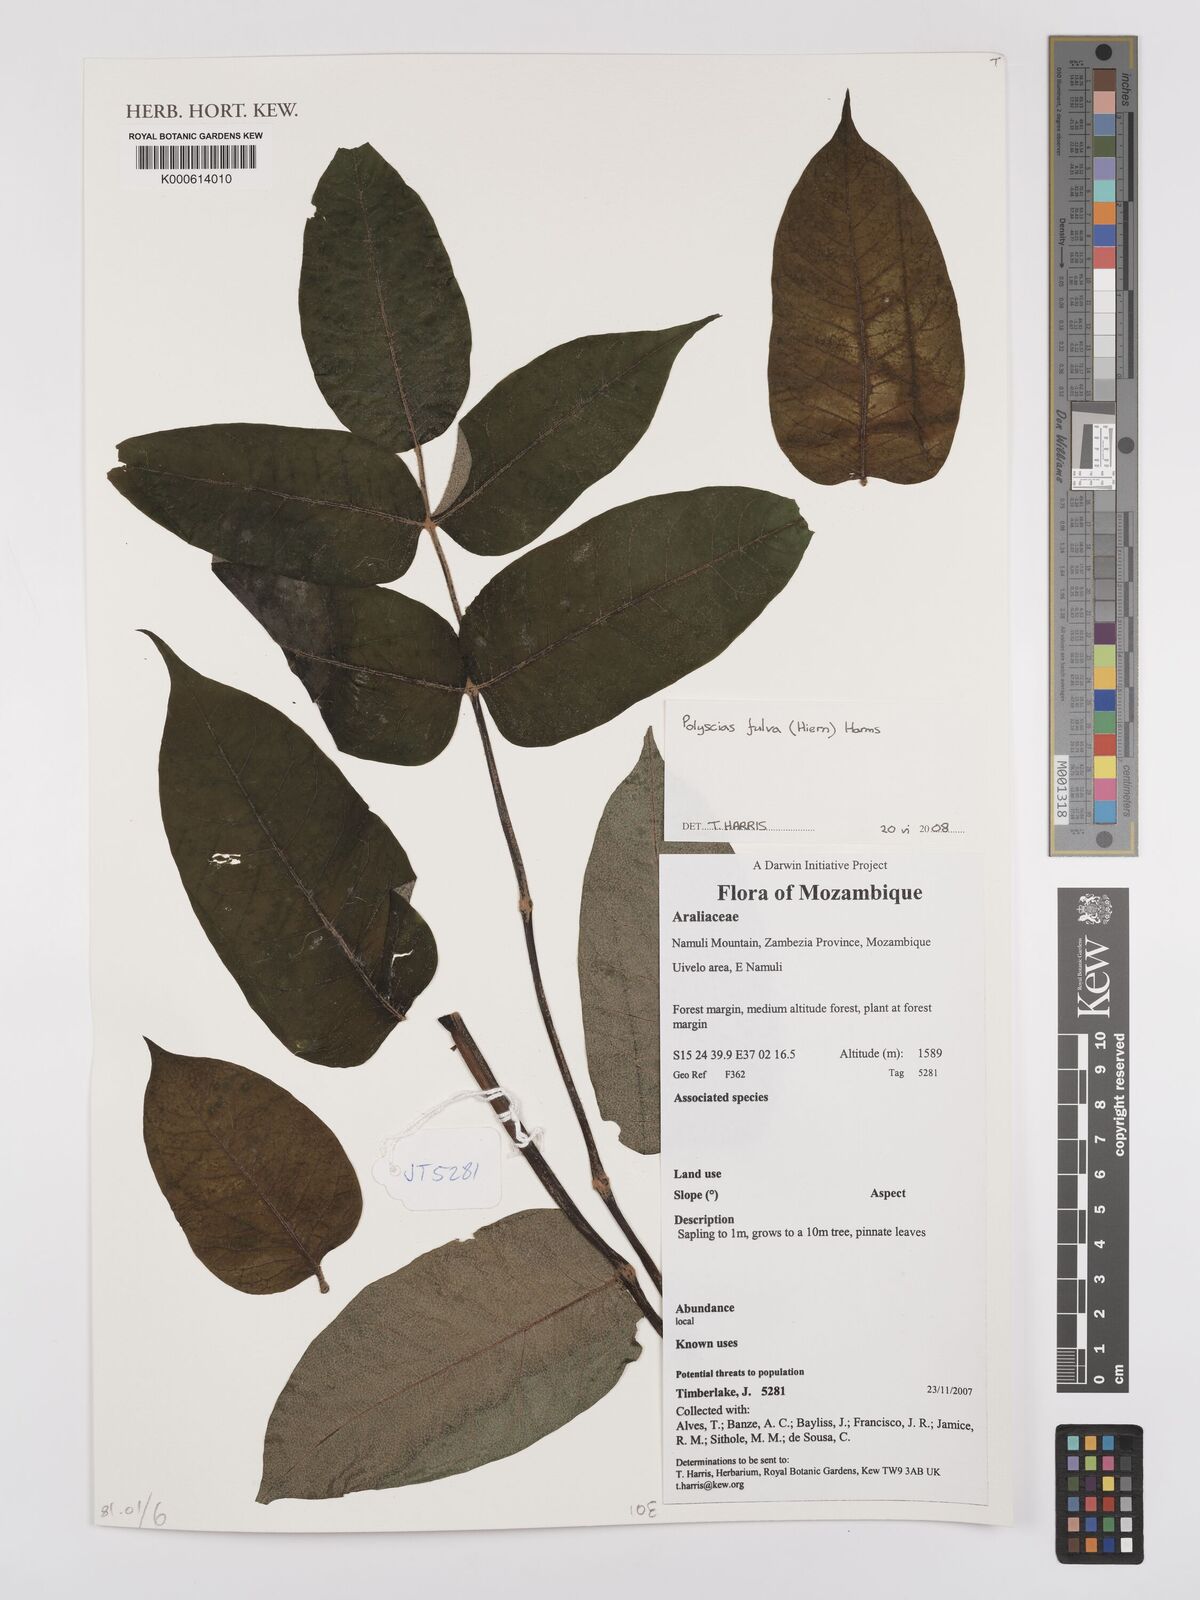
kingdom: Plantae
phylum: Tracheophyta
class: Magnoliopsida
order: Apiales
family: Araliaceae
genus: Polyscias
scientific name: Polyscias fulva
